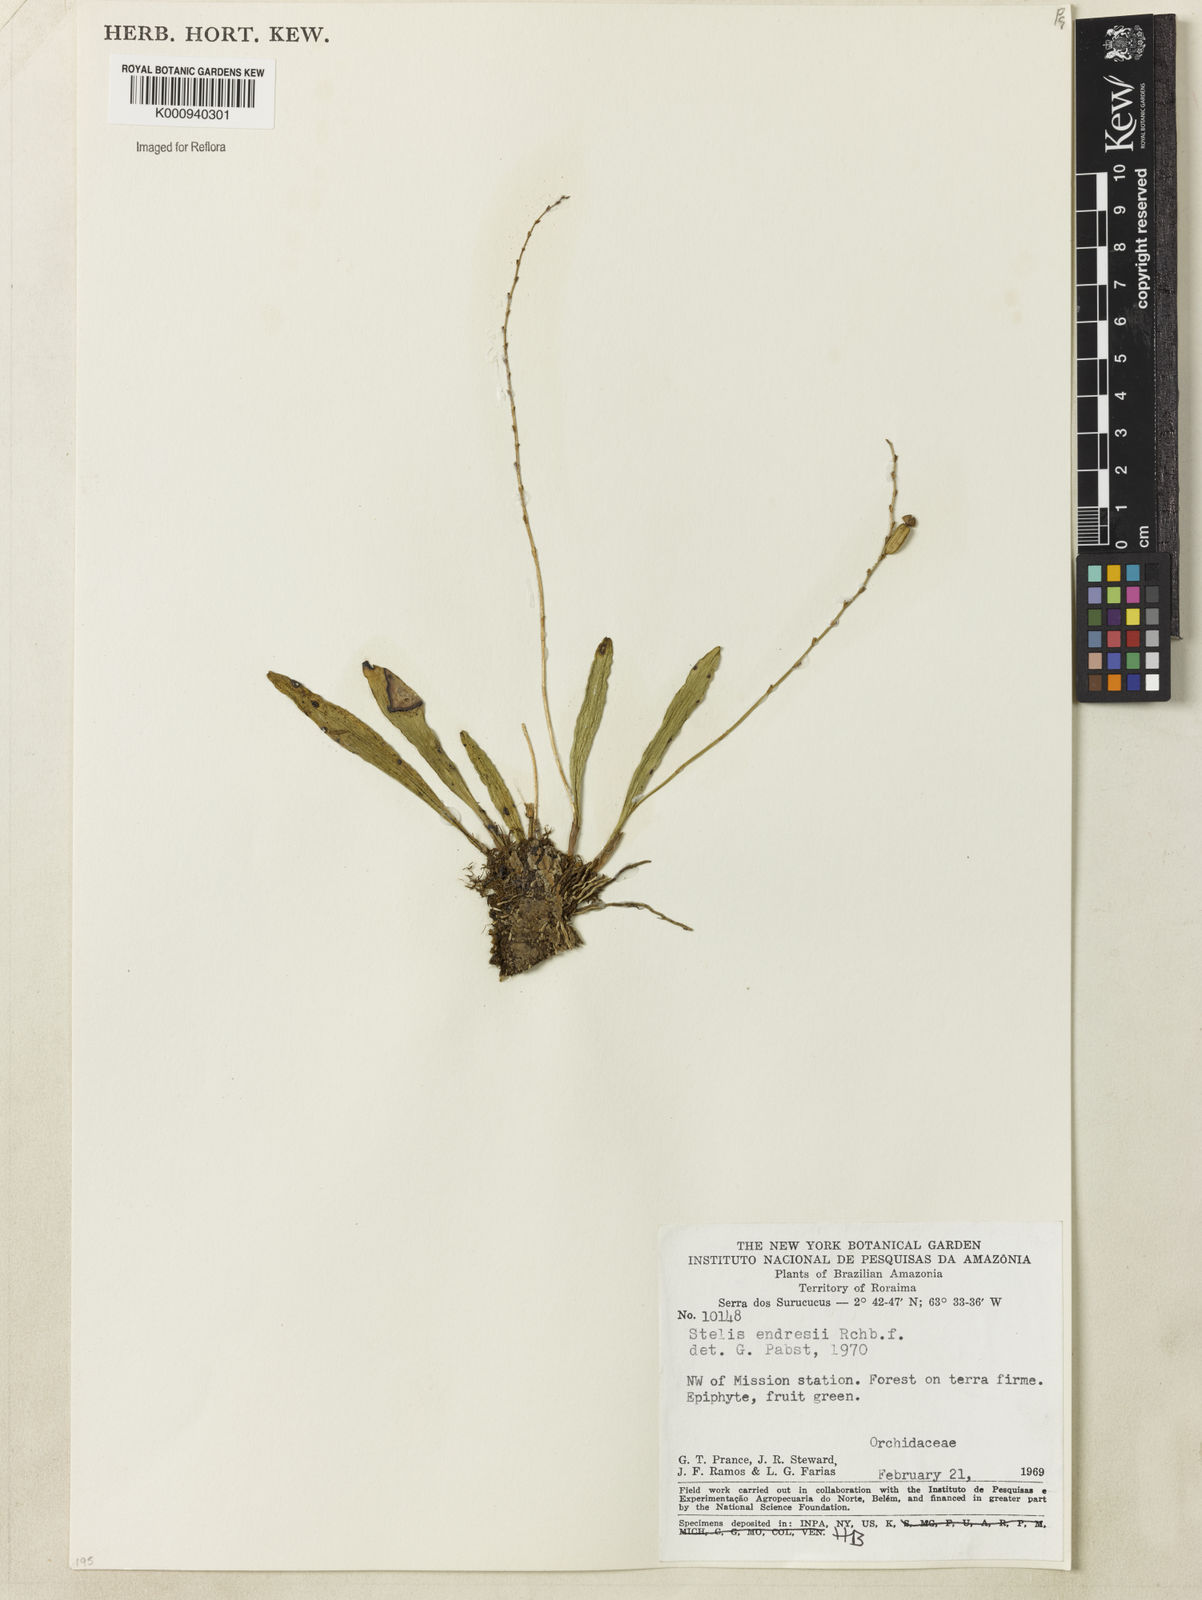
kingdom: Plantae
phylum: Tracheophyta
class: Liliopsida
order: Asparagales
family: Orchidaceae
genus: Stelis
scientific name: Stelis argentata
